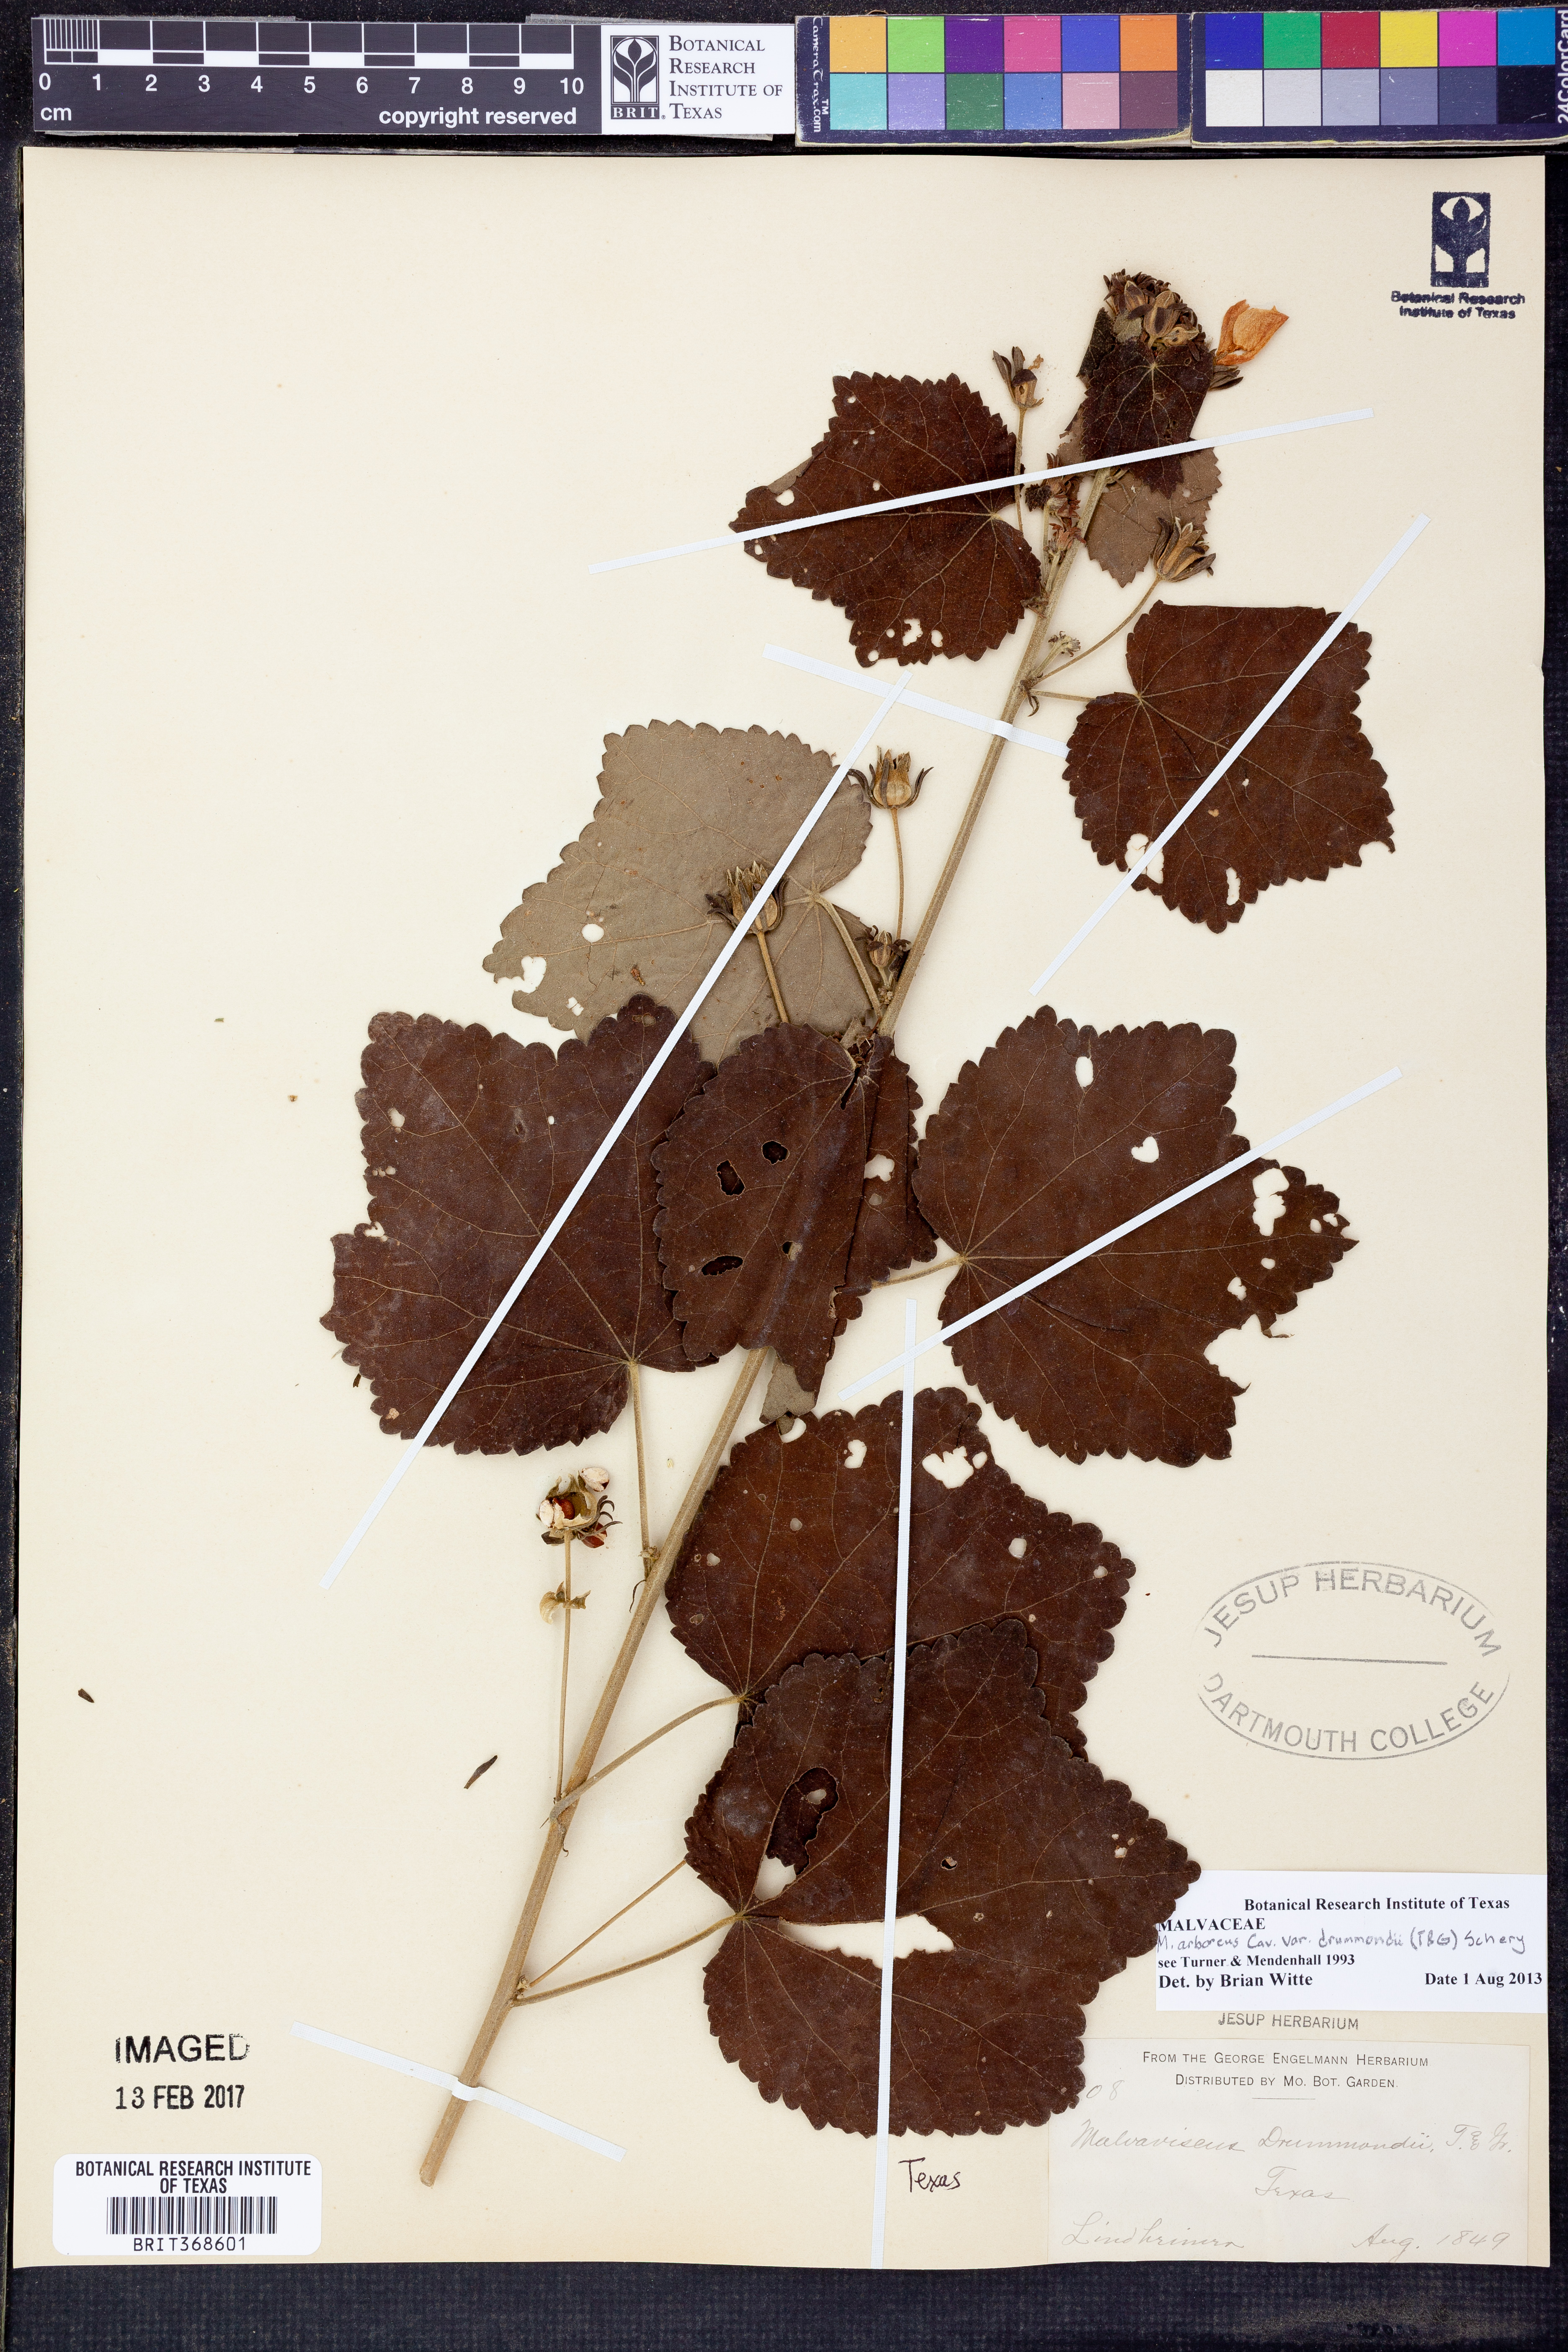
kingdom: Plantae
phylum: Tracheophyta
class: Magnoliopsida
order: Malvales
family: Malvaceae
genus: Malvaviscus
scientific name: Malvaviscus arboreus
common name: Wax mallow
